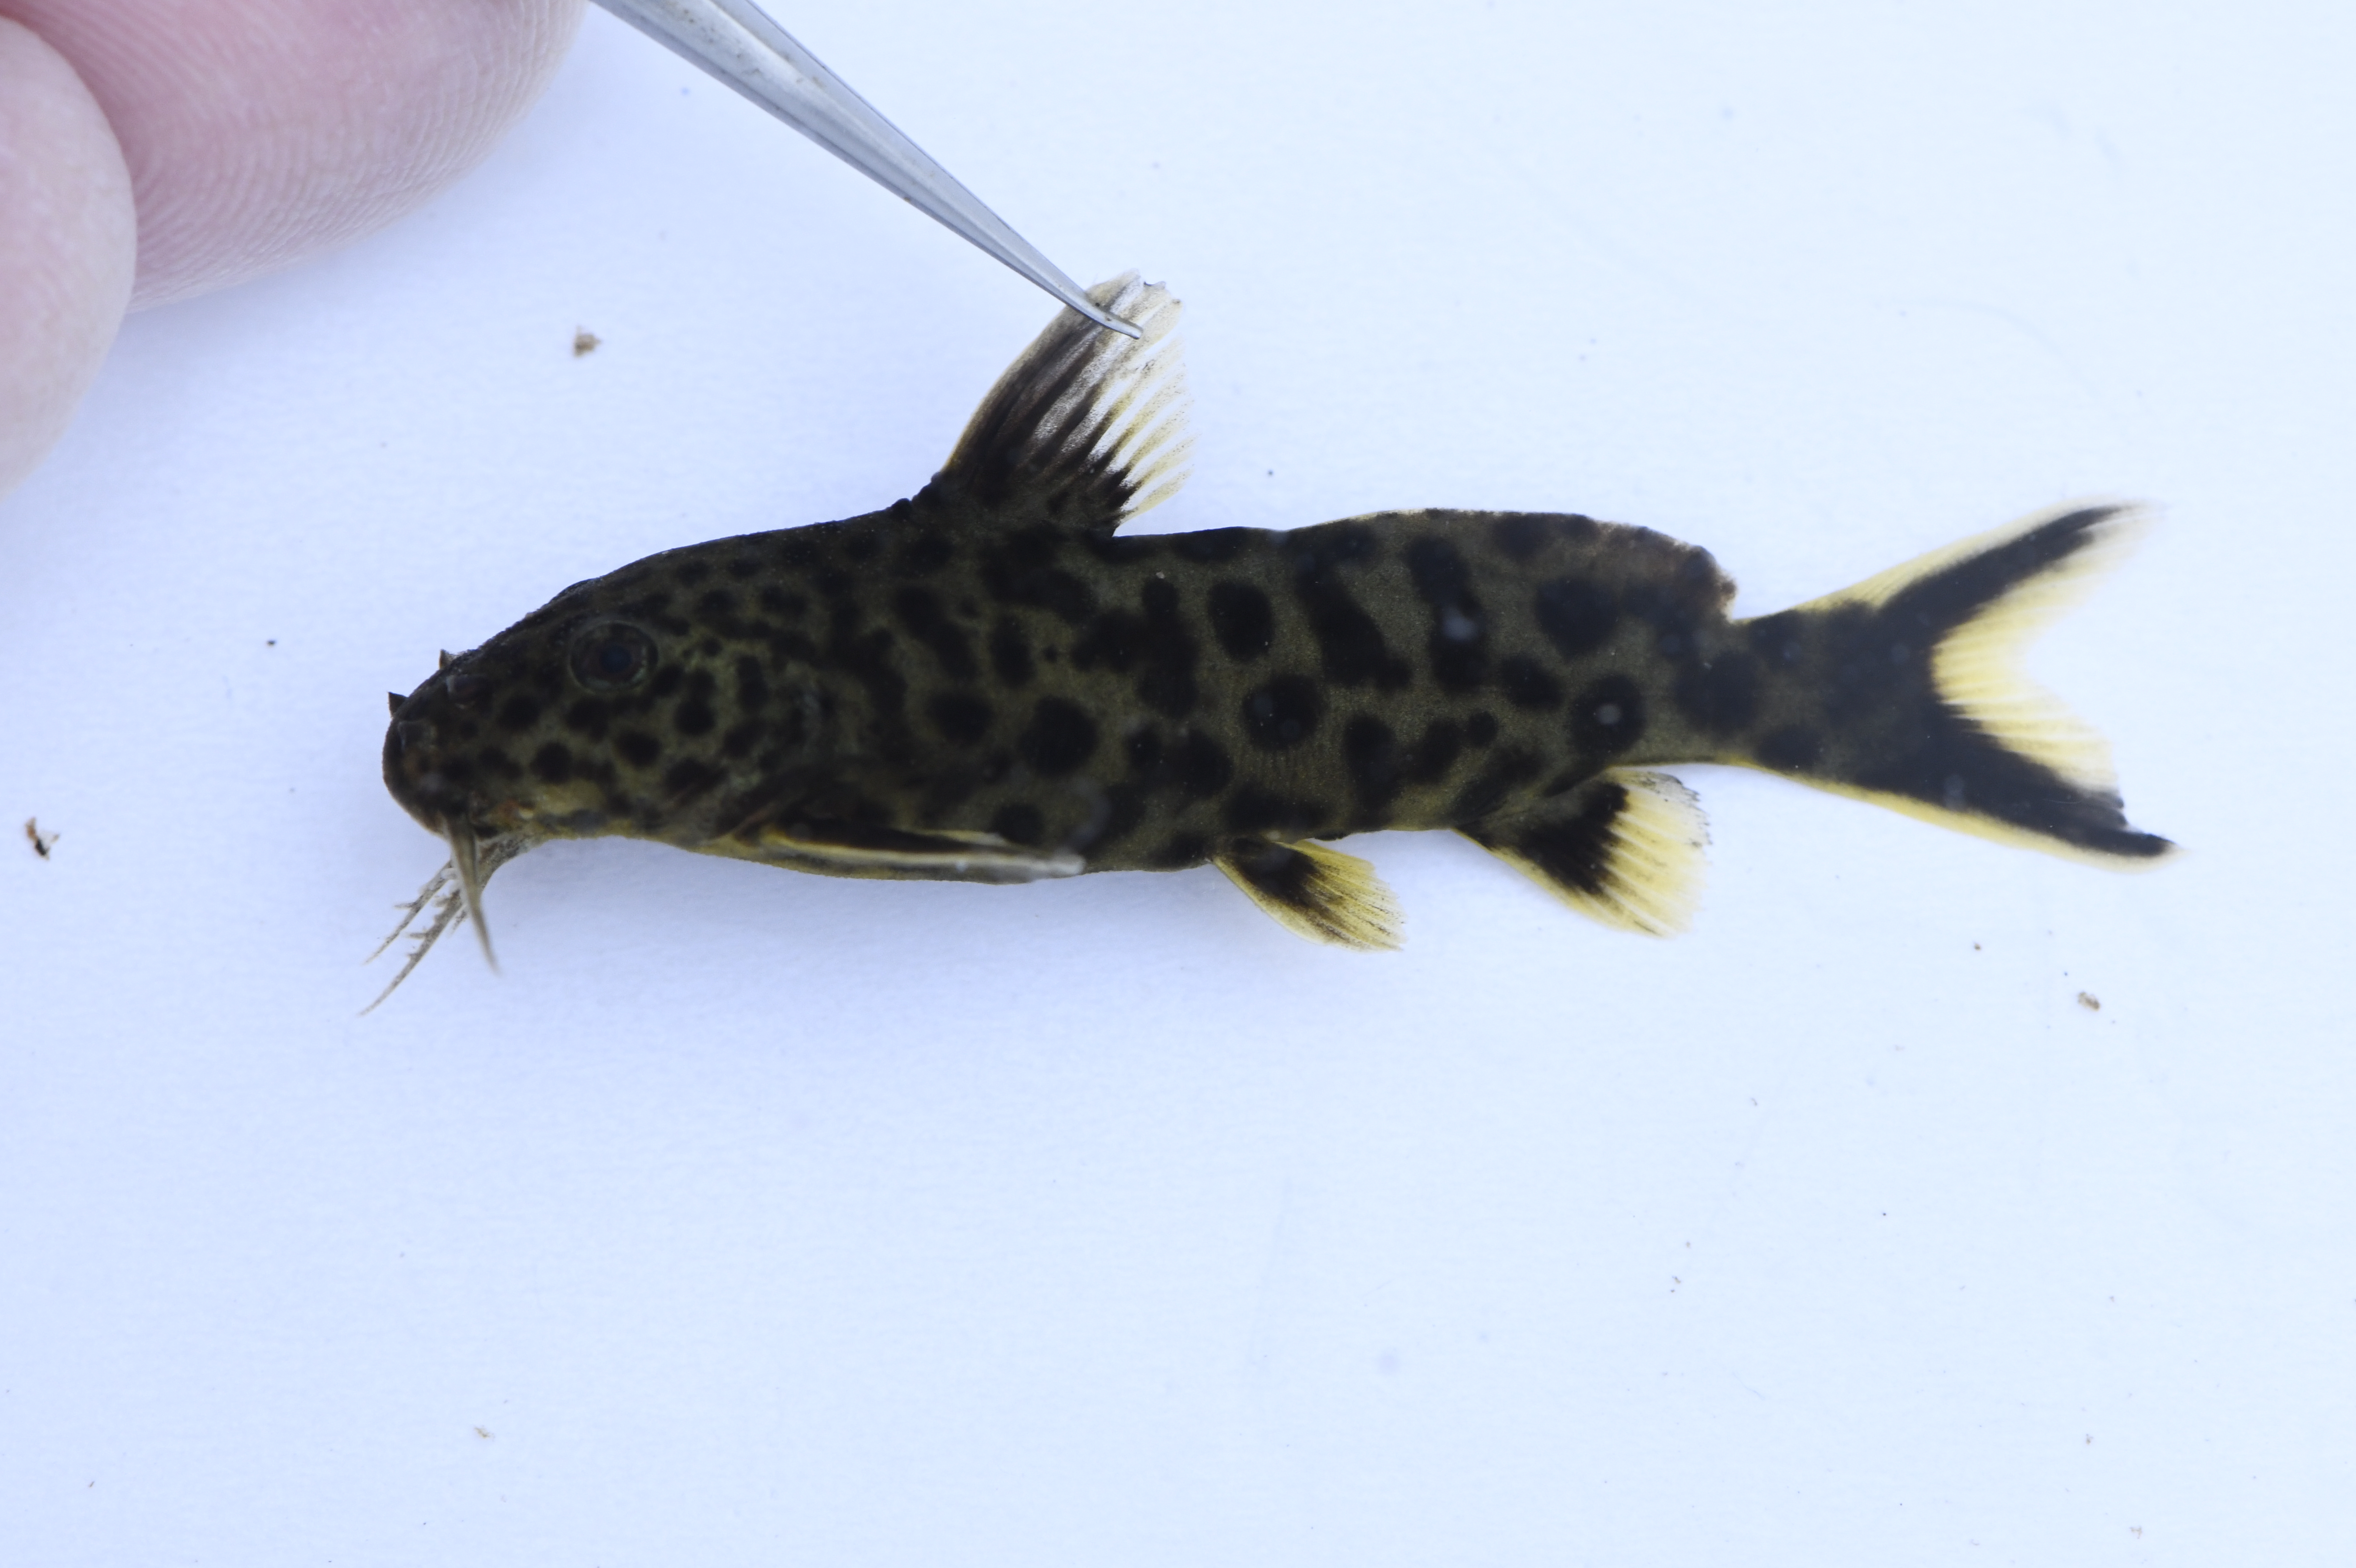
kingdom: Animalia
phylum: Chordata
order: Siluriformes
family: Mochokidae
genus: Synodontis
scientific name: Synodontis petricola
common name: Cuckoo catfish
